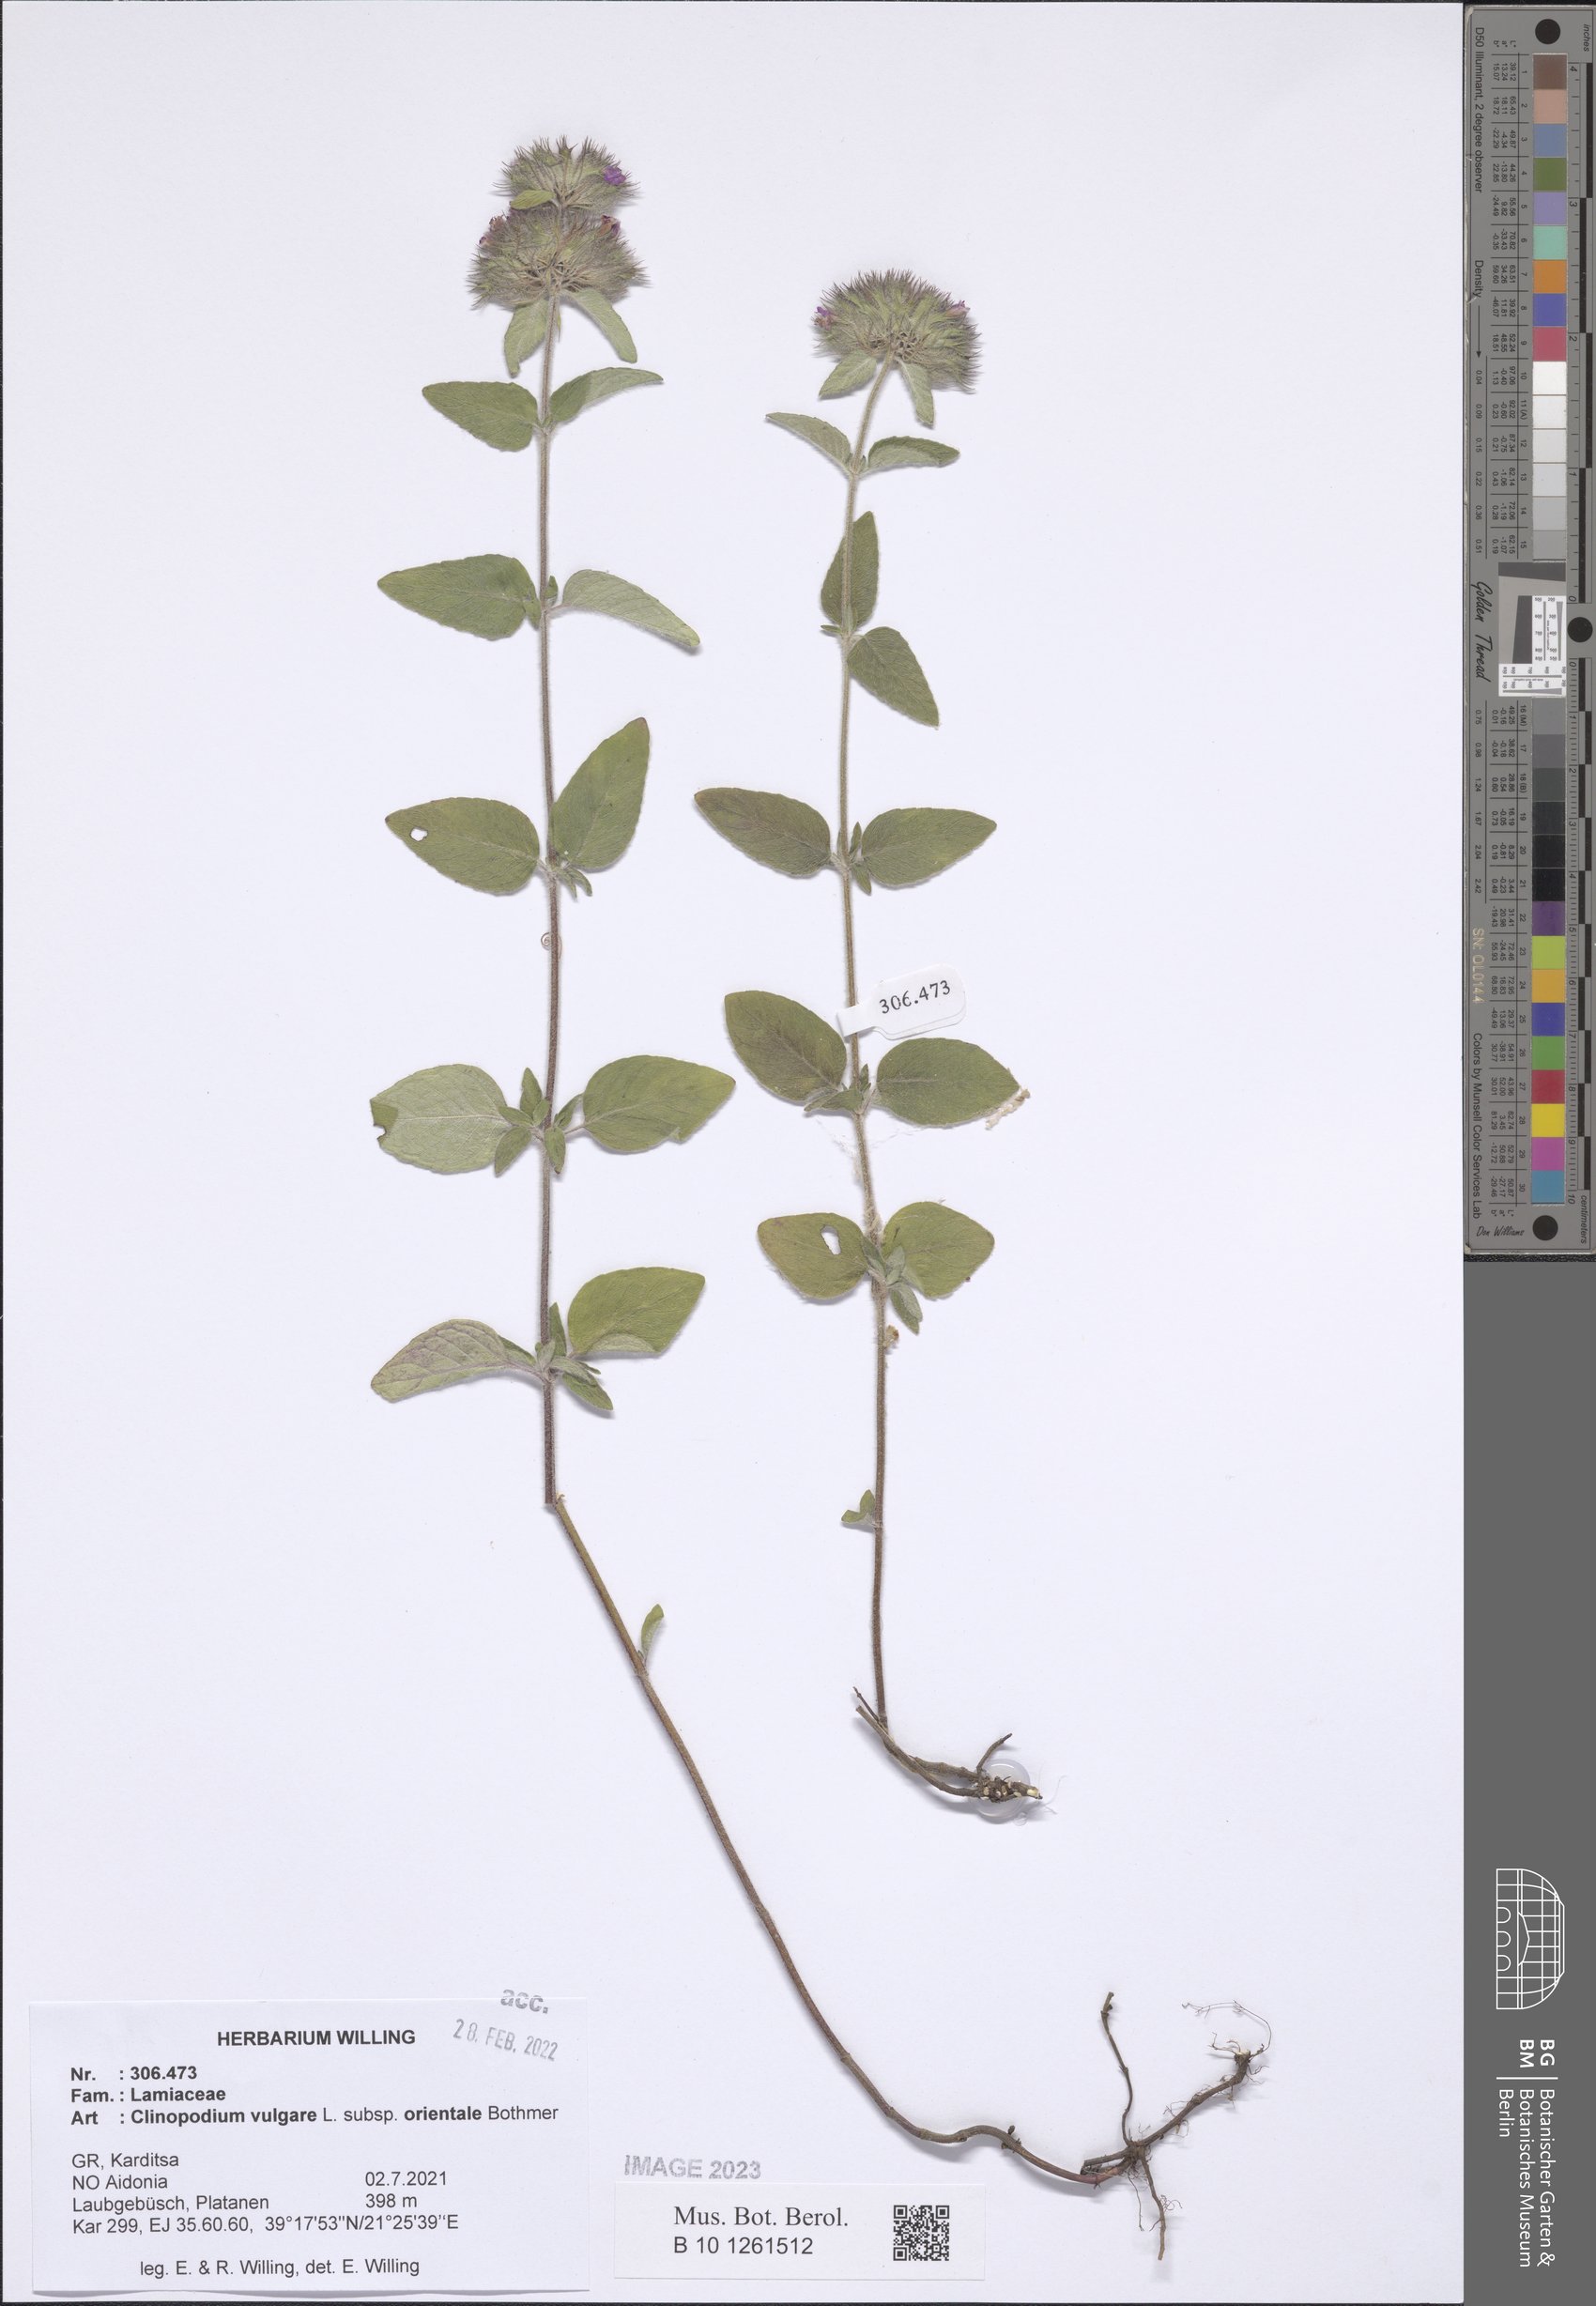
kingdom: Plantae
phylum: Tracheophyta
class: Magnoliopsida
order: Lamiales
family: Lamiaceae
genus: Clinopodium
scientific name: Clinopodium vulgare
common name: Wild basil
